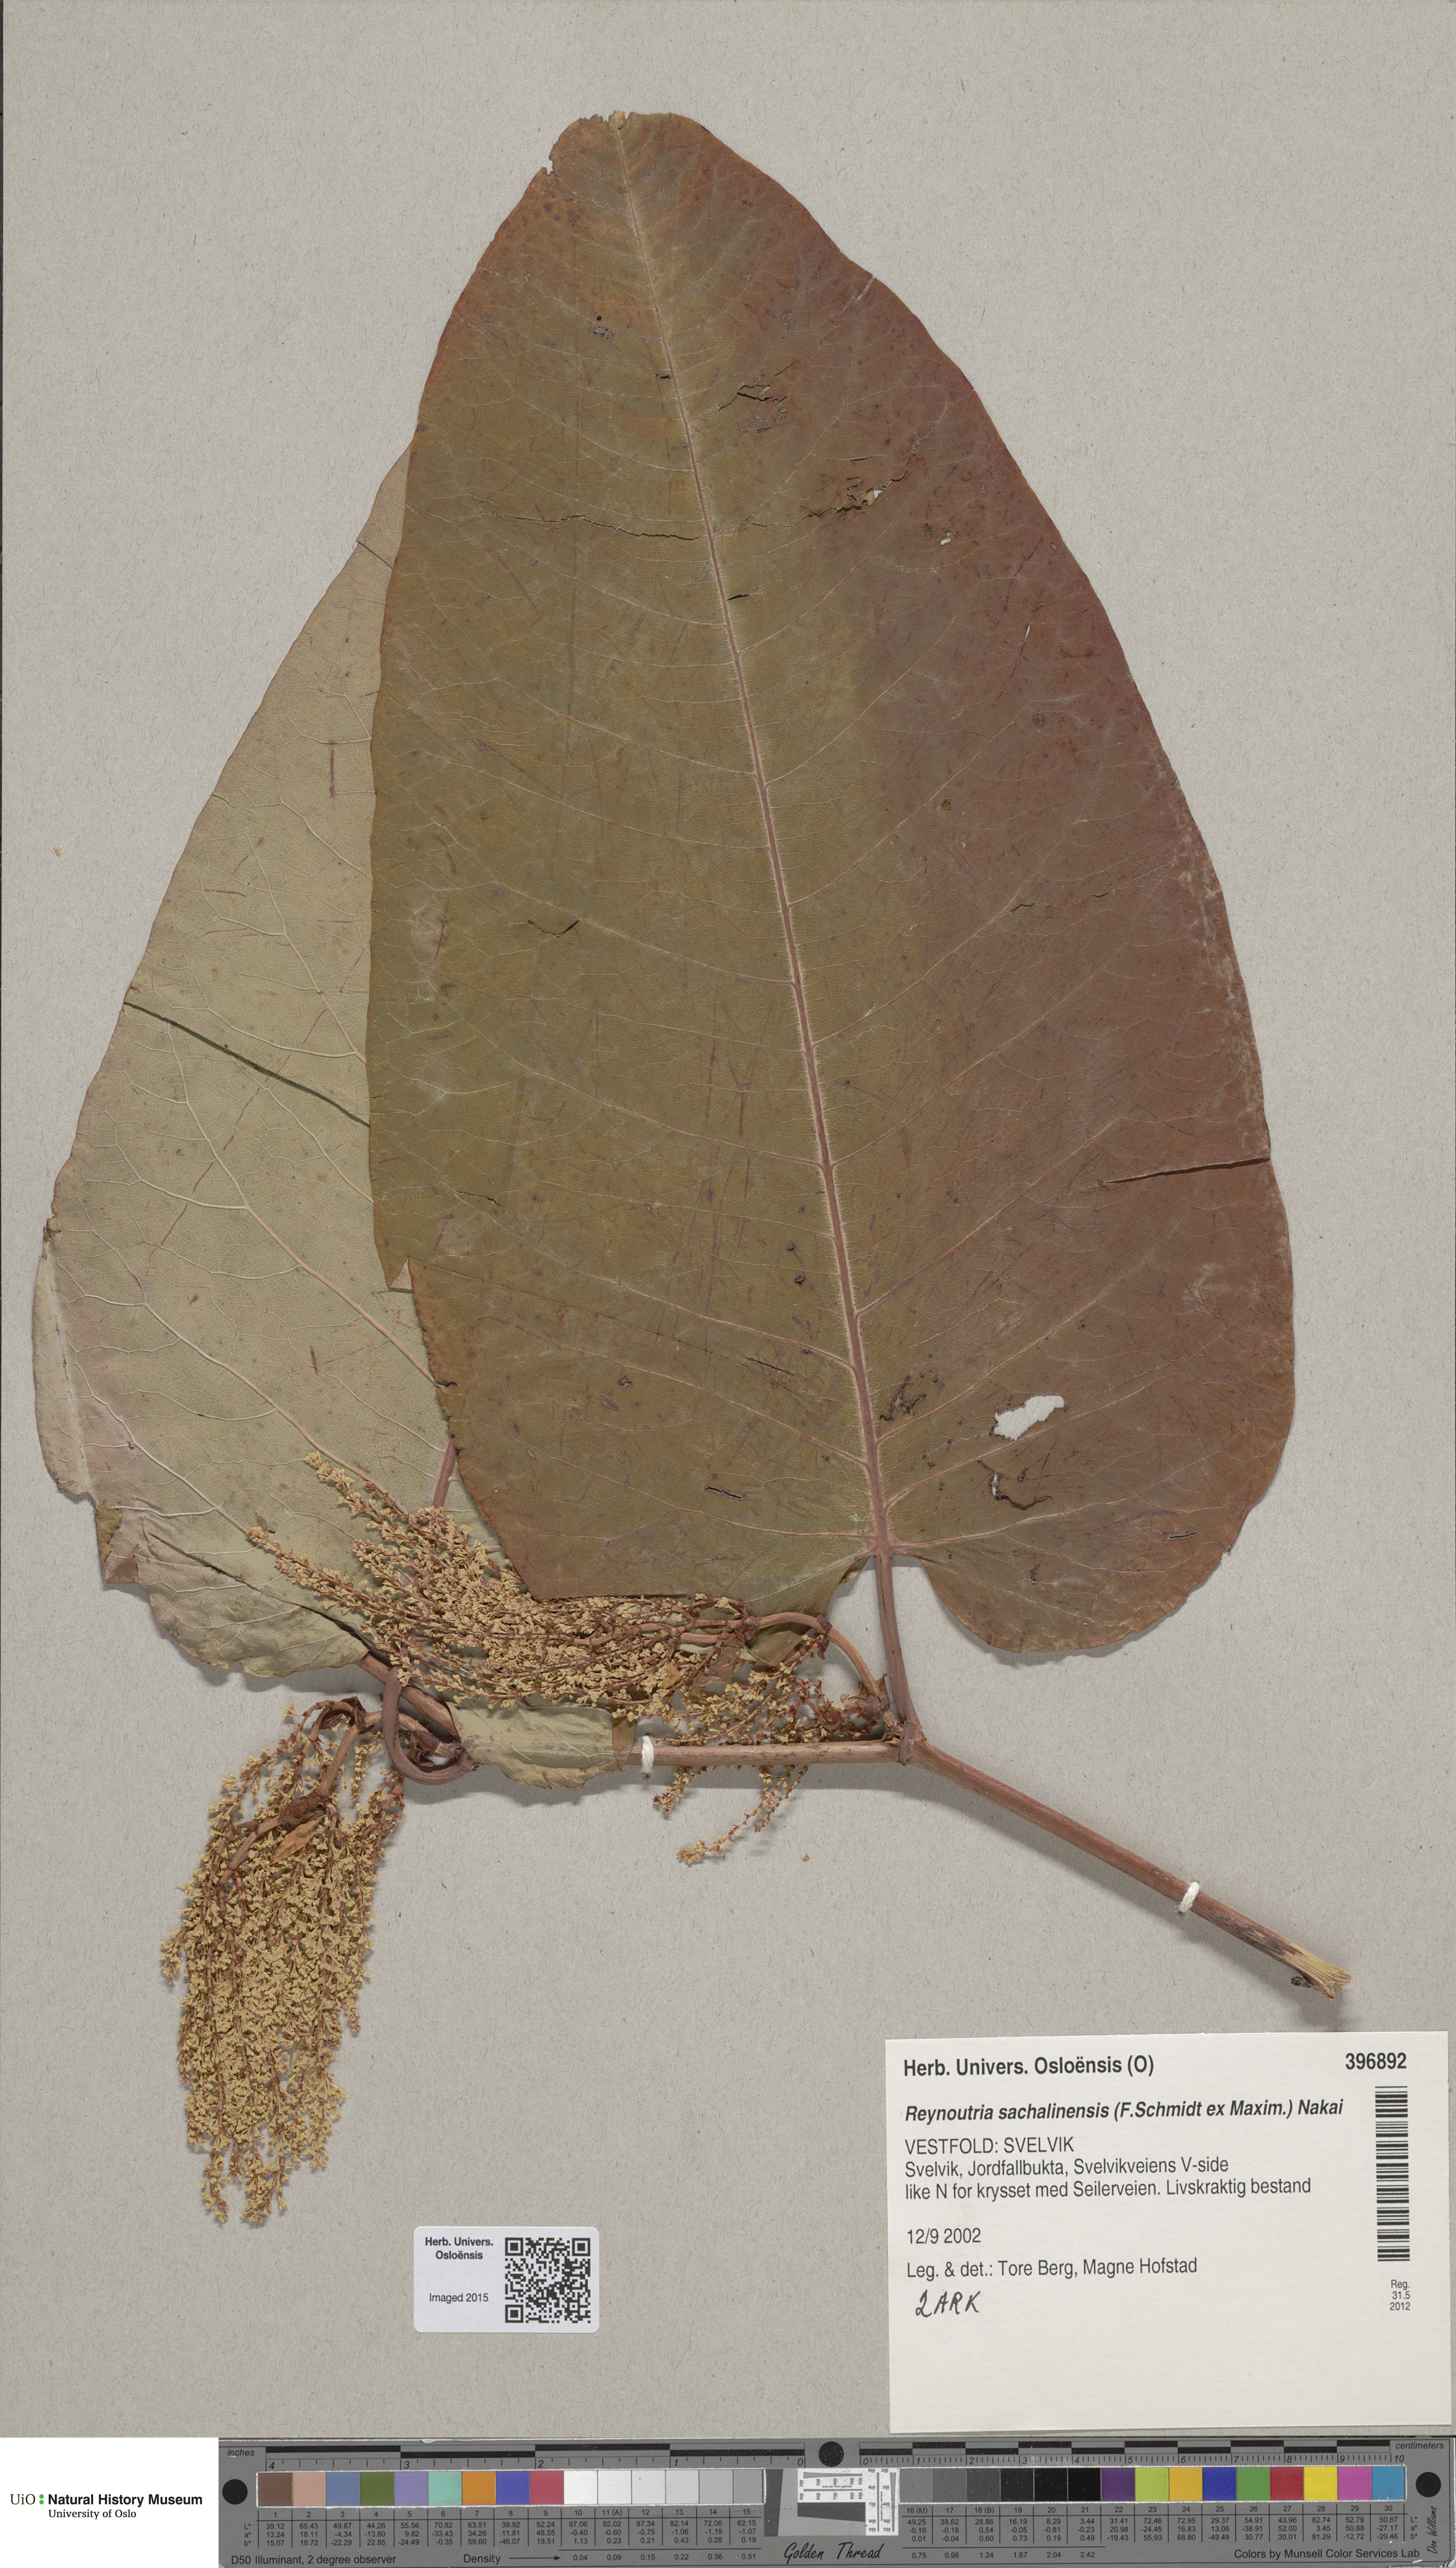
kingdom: Plantae
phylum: Tracheophyta
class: Magnoliopsida
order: Caryophyllales
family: Polygonaceae
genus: Reynoutria
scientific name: Reynoutria sachalinensis
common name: Giant knotweed
